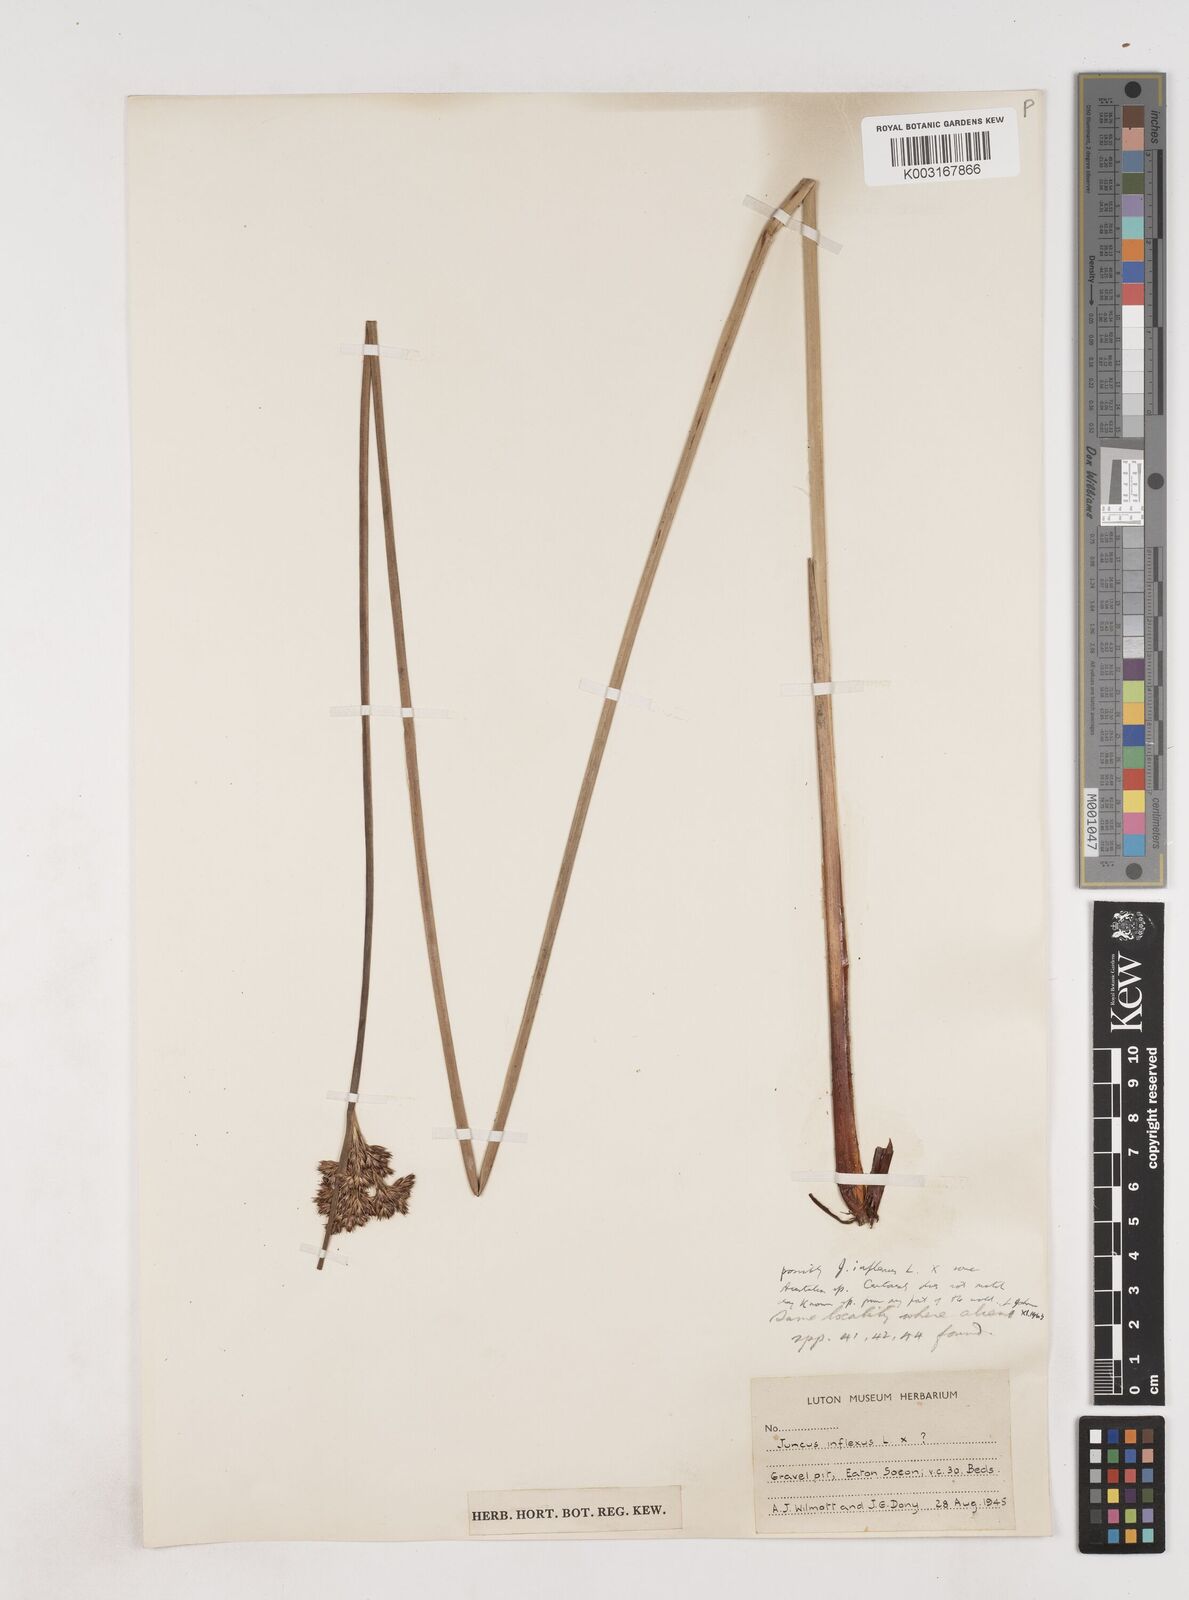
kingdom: Plantae
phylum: Tracheophyta
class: Liliopsida
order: Poales
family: Juncaceae
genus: Juncus
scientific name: Juncus inflexus
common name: Hard rush
